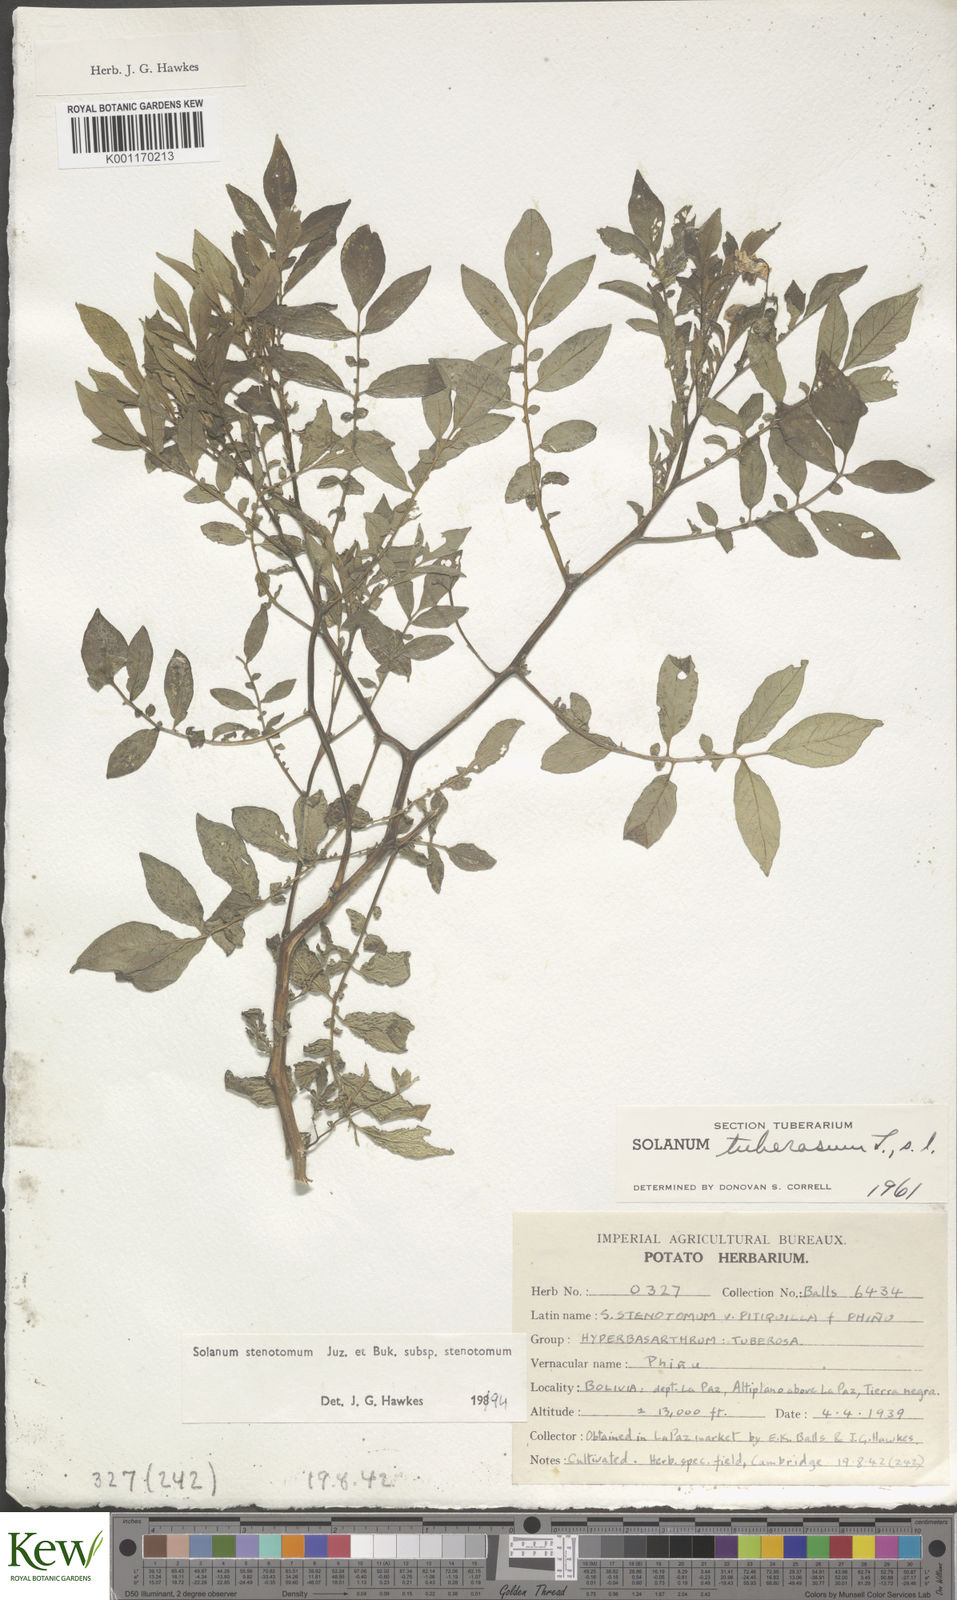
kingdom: Plantae
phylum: Tracheophyta
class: Magnoliopsida
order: Solanales
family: Solanaceae
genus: Solanum
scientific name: Solanum tuberosum
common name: Potato
